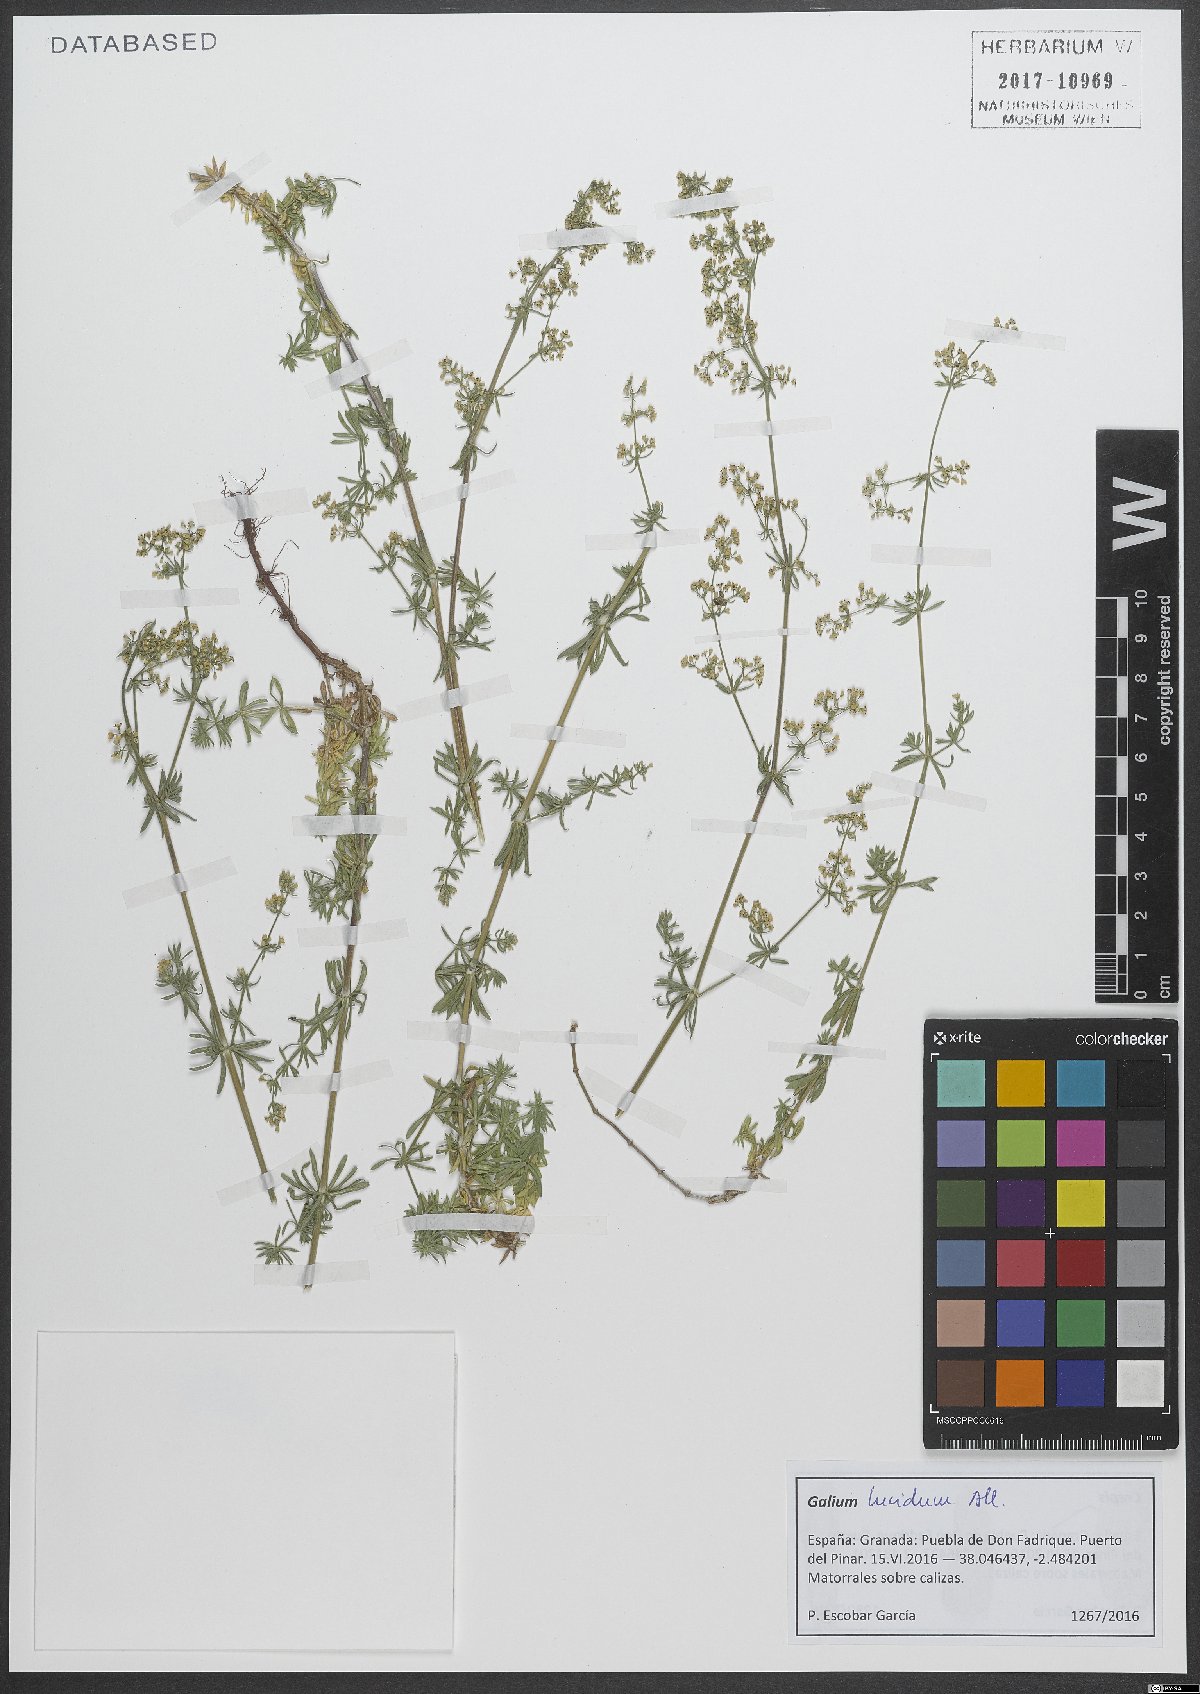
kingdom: Plantae
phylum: Tracheophyta
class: Magnoliopsida
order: Gentianales
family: Rubiaceae
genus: Galium
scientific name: Galium lucidum
